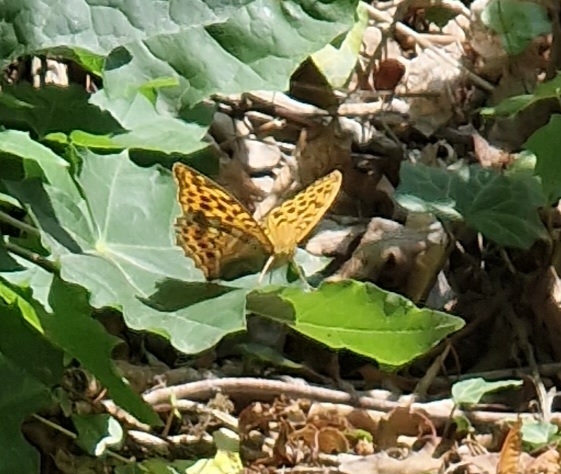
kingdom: Animalia
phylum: Arthropoda
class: Insecta
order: Lepidoptera
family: Nymphalidae
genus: Argynnis
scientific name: Argynnis paphia
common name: Kejserkåbe
